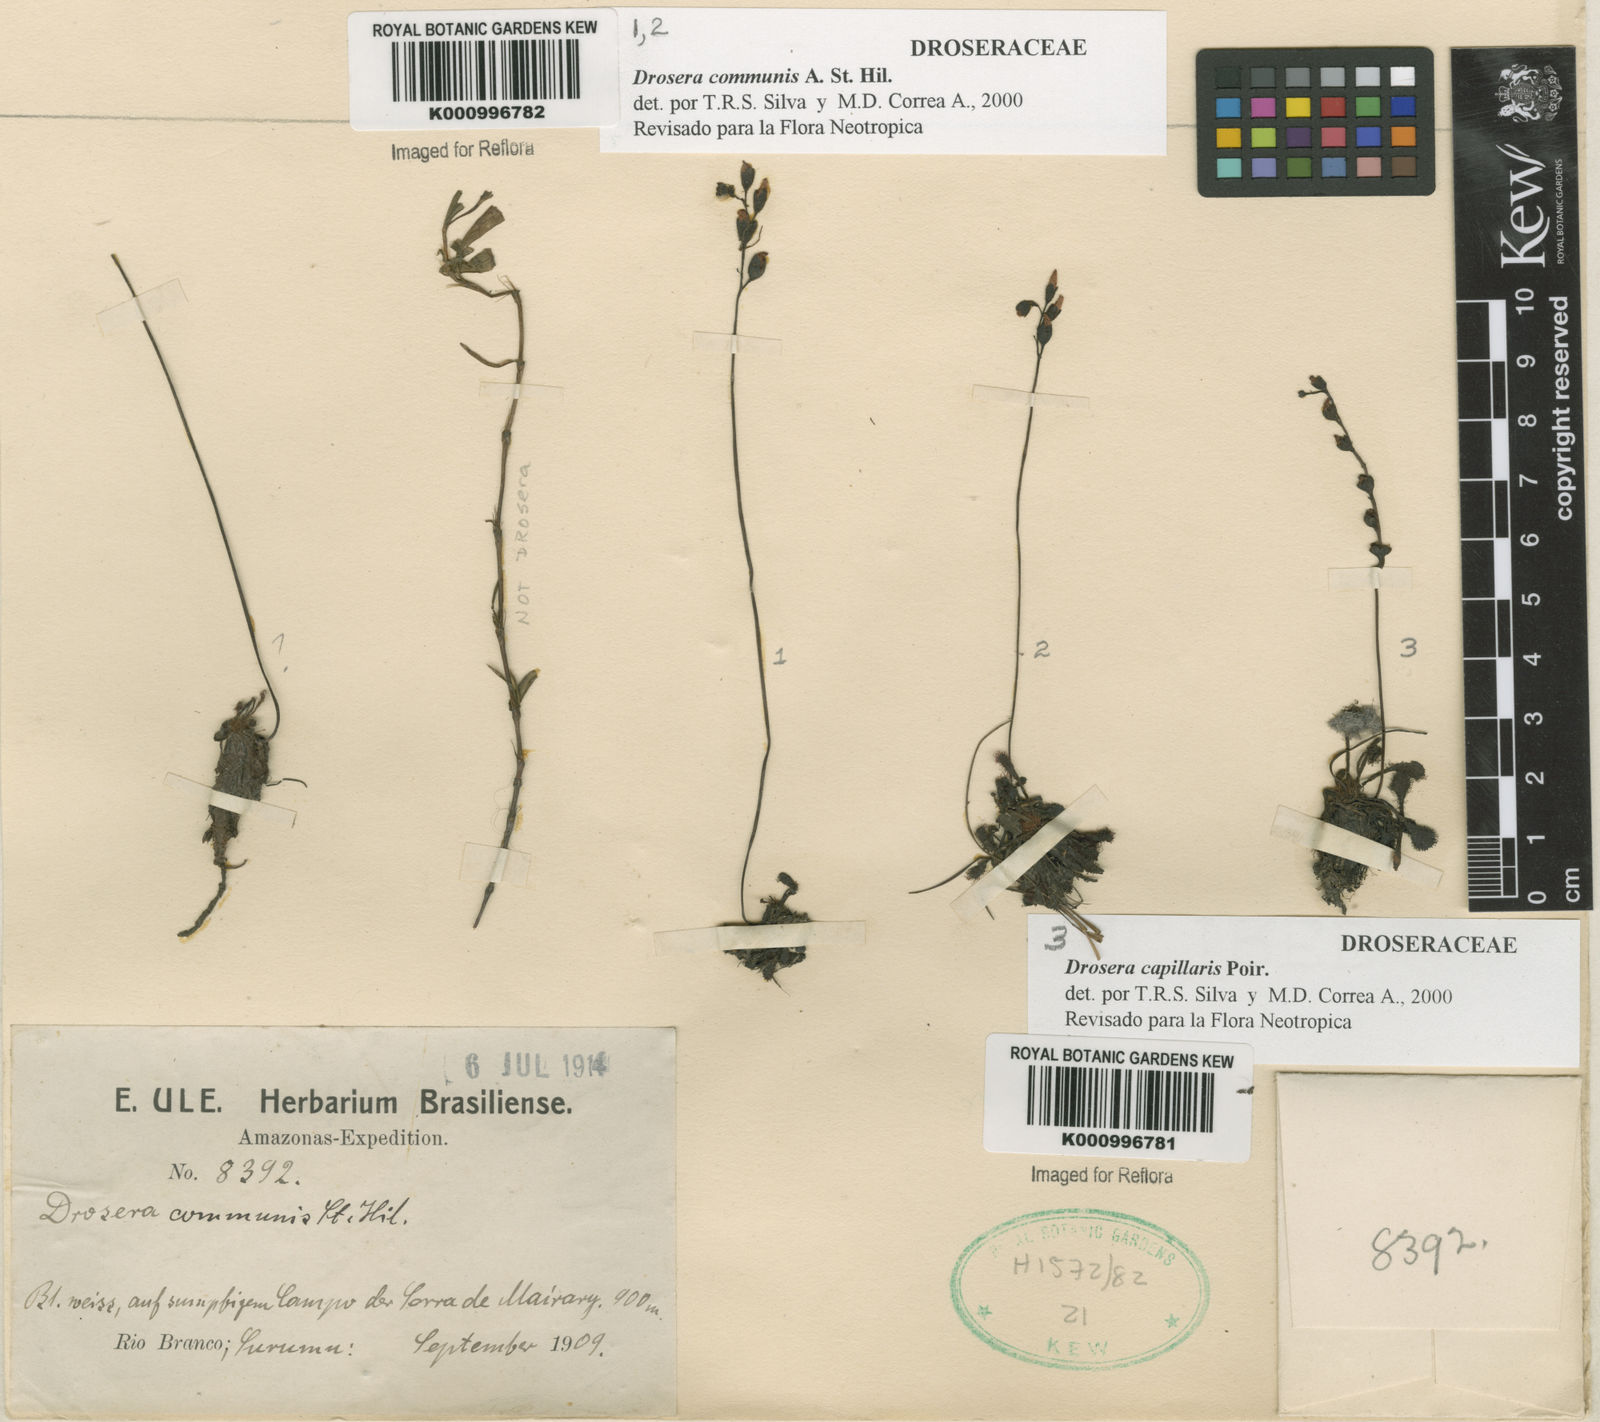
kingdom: Plantae
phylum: Tracheophyta
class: Magnoliopsida
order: Caryophyllales
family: Droseraceae
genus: Drosera
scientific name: Drosera communis
